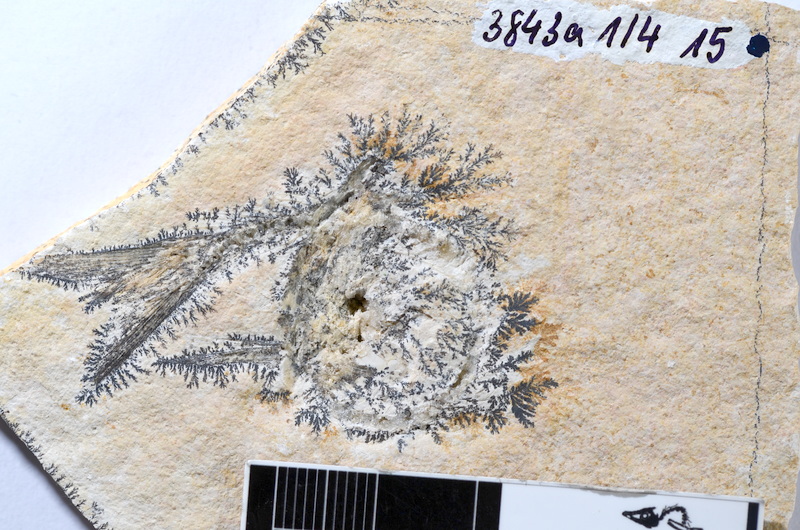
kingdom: Animalia
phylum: Chordata
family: Ascalaboidae
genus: Tharsis
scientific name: Tharsis dubius
